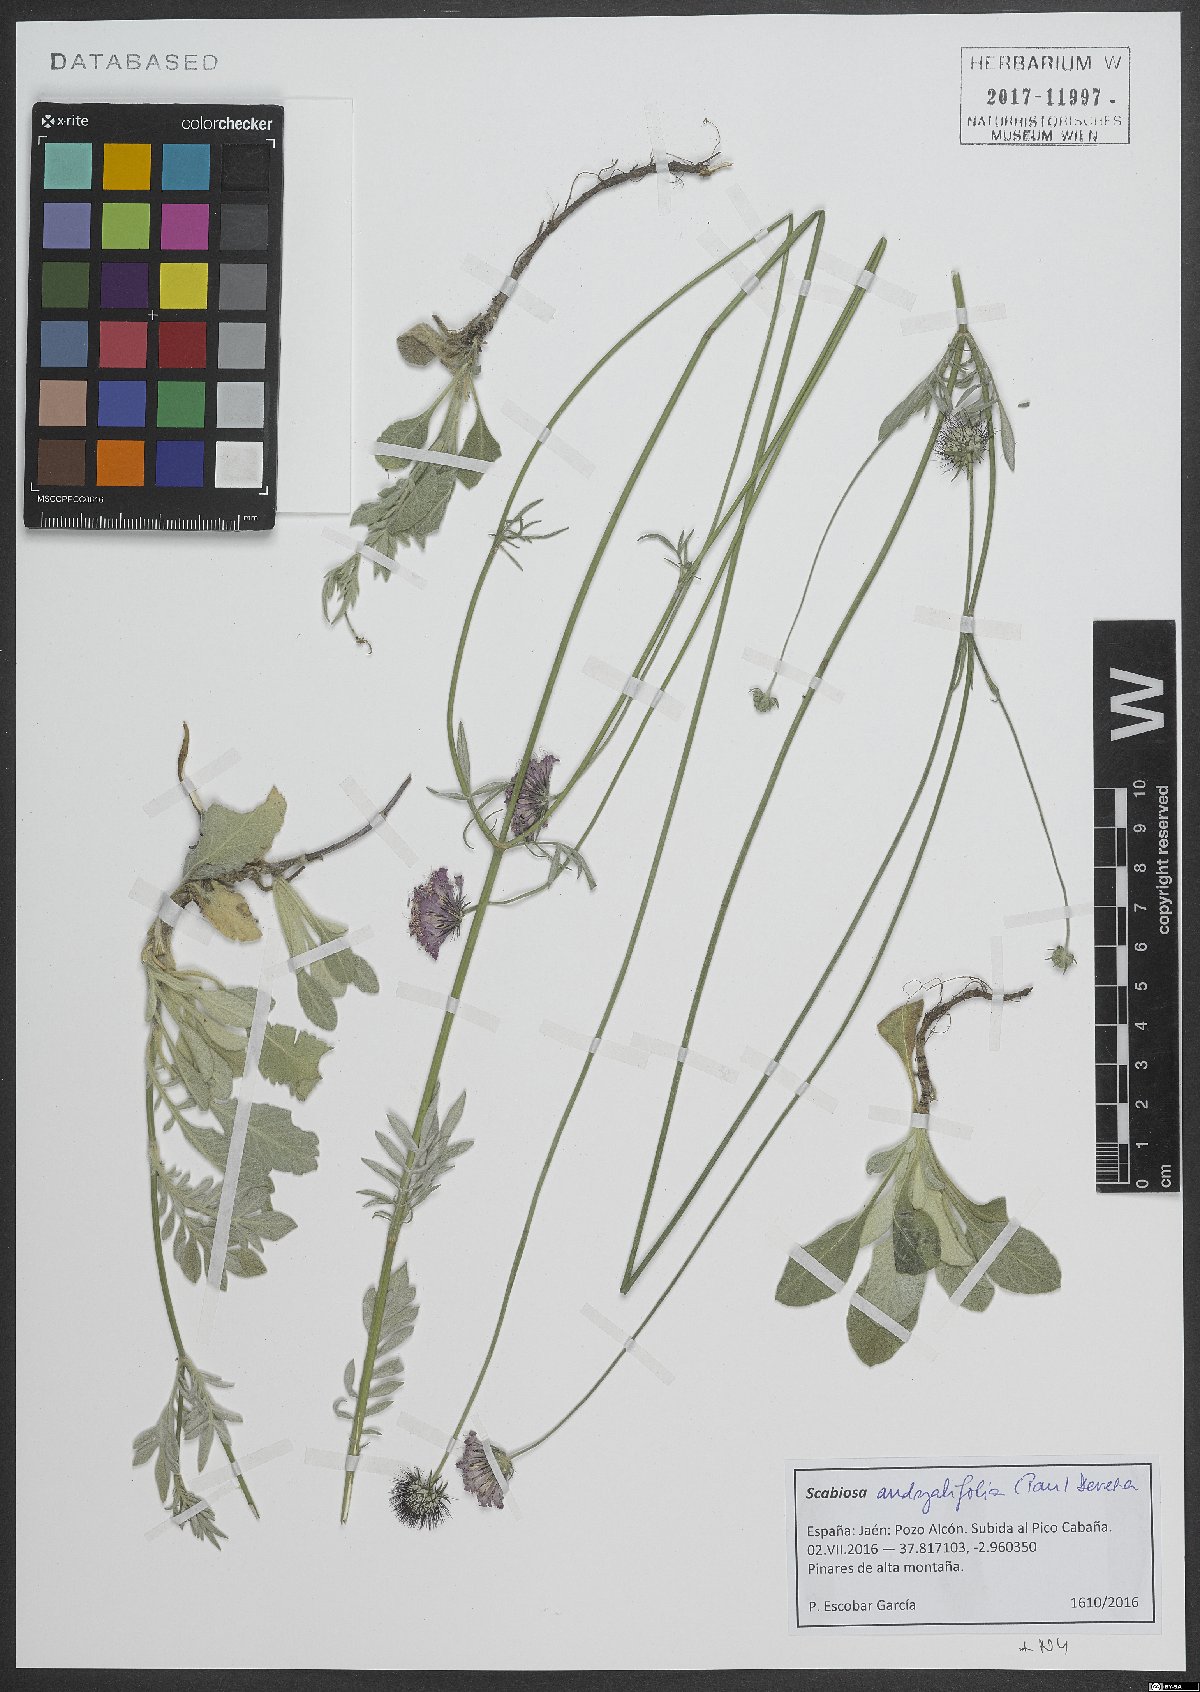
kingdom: Plantae
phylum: Tracheophyta
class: Magnoliopsida
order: Dipsacales
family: Caprifoliaceae
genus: Scabiosa
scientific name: Scabiosa andryalifolia
